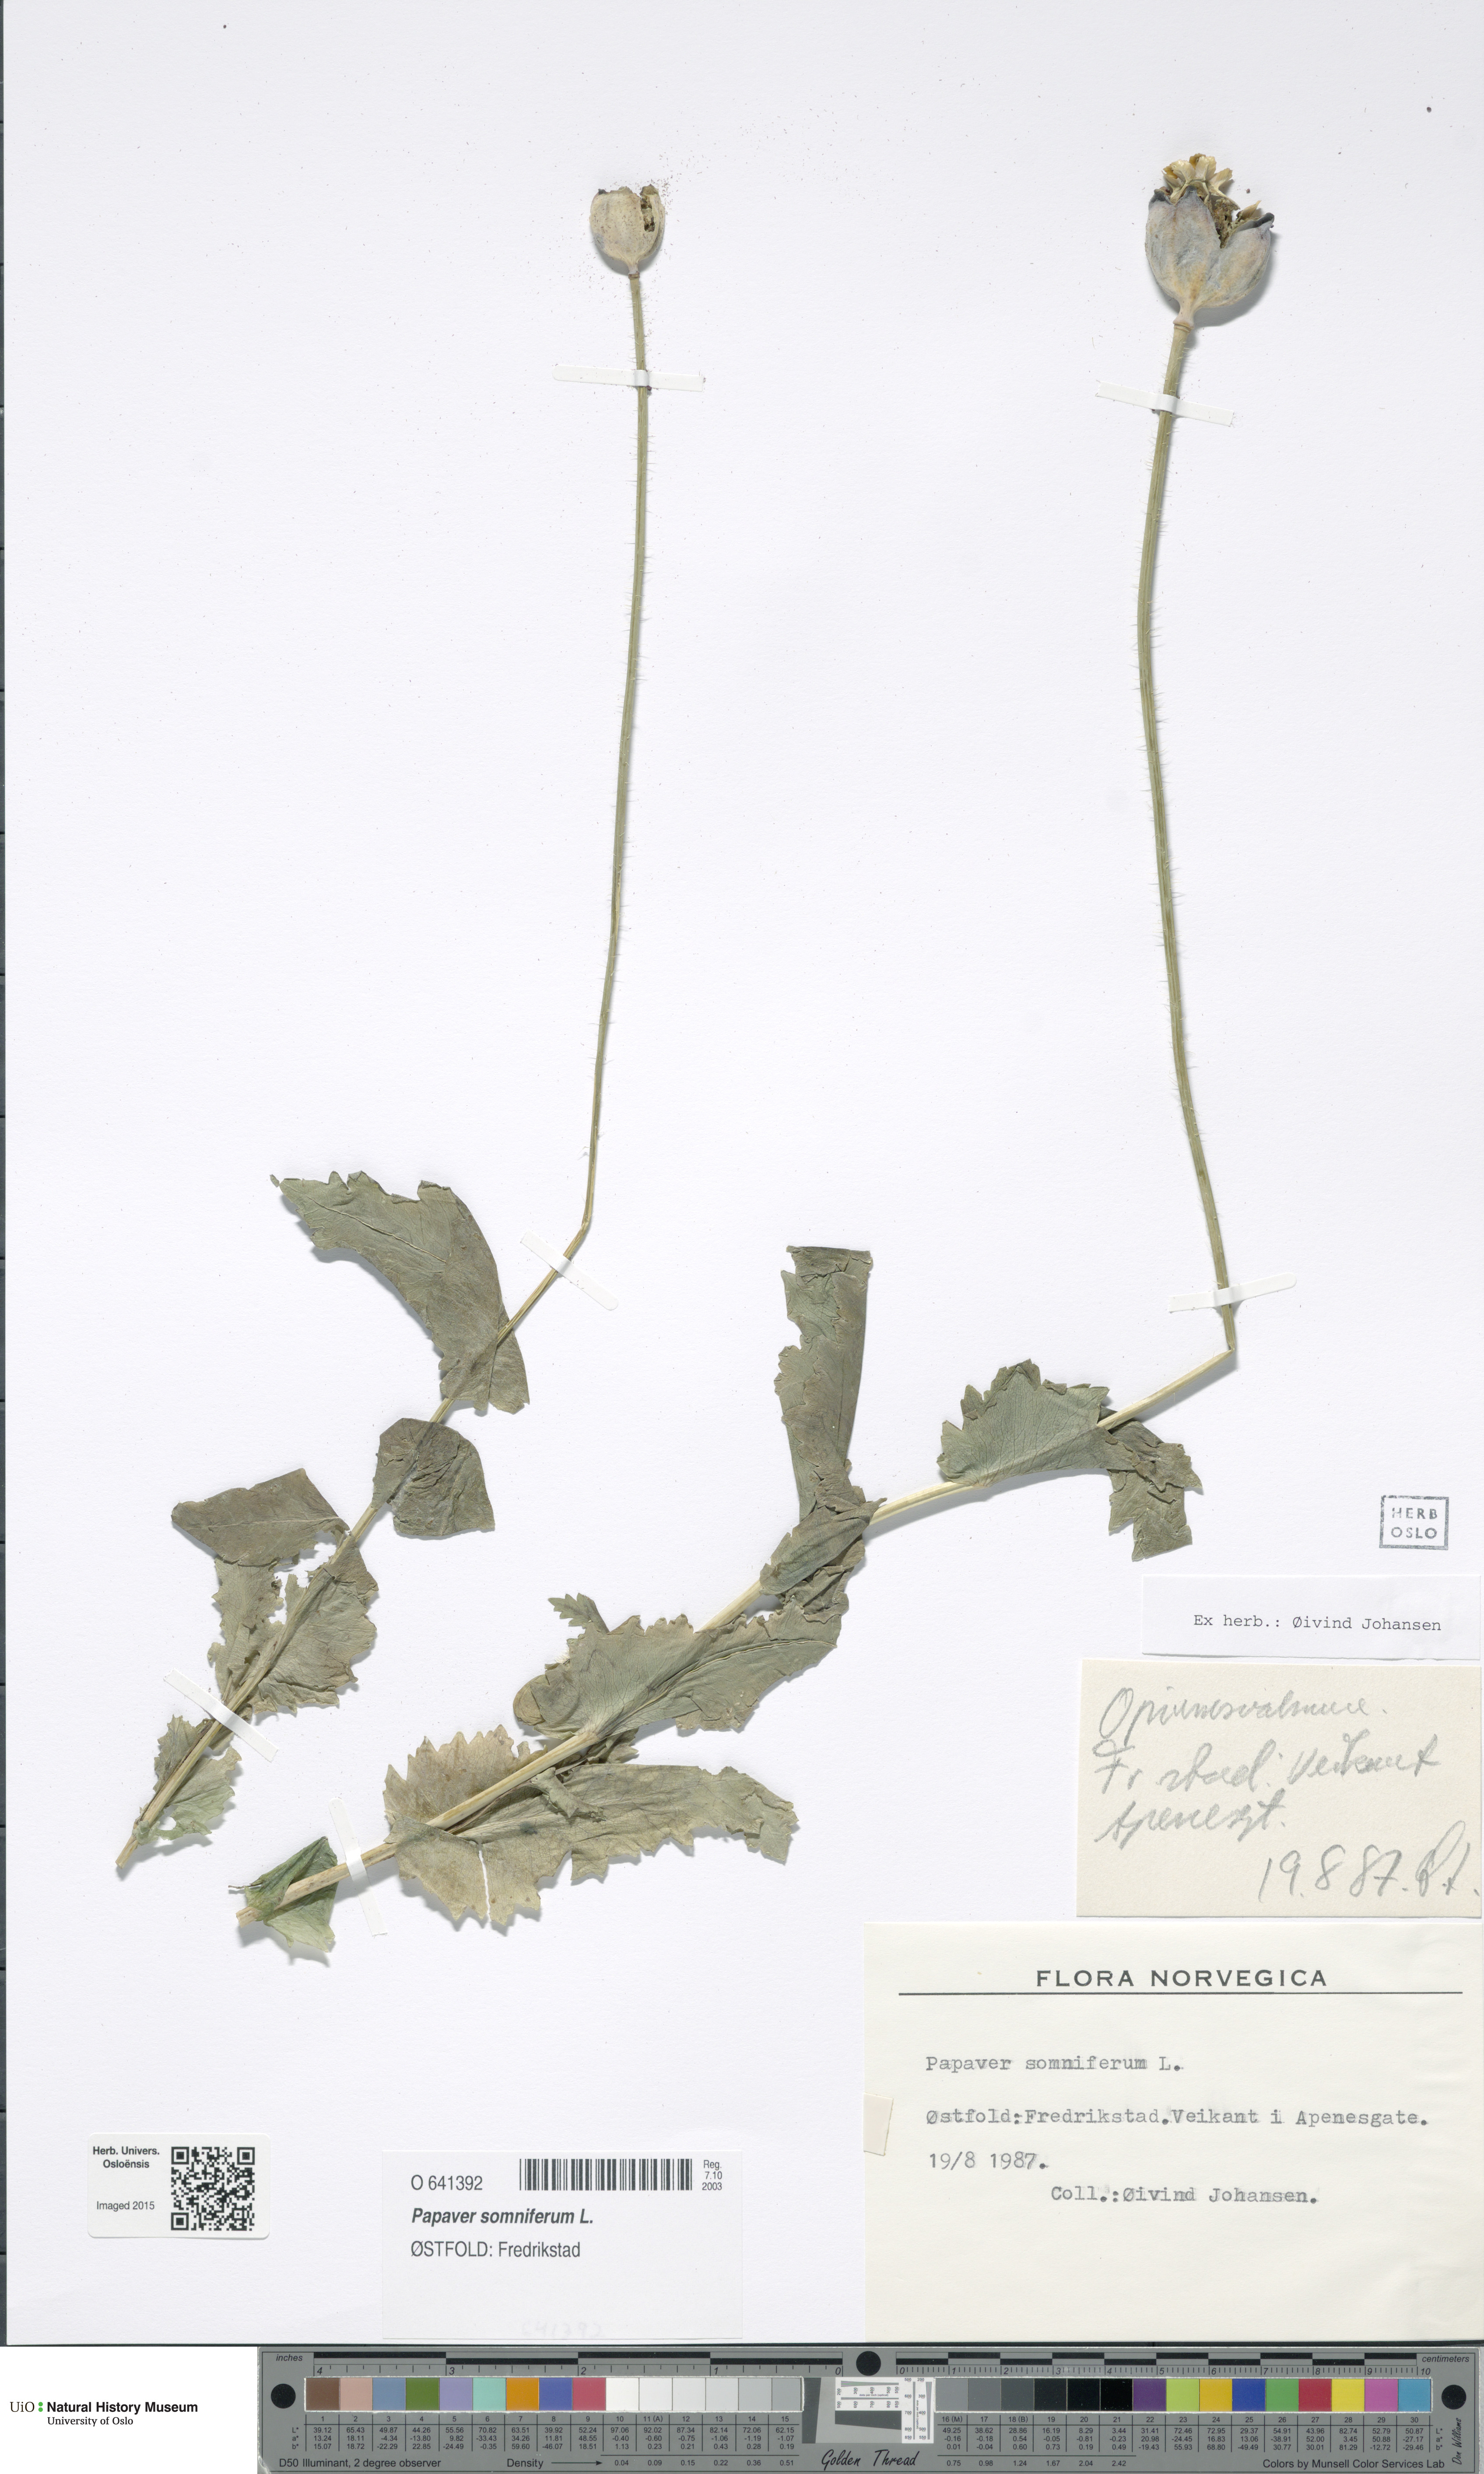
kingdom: Plantae
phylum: Tracheophyta
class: Magnoliopsida
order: Ranunculales
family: Papaveraceae
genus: Papaver
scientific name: Papaver somniferum
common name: Opium poppy
